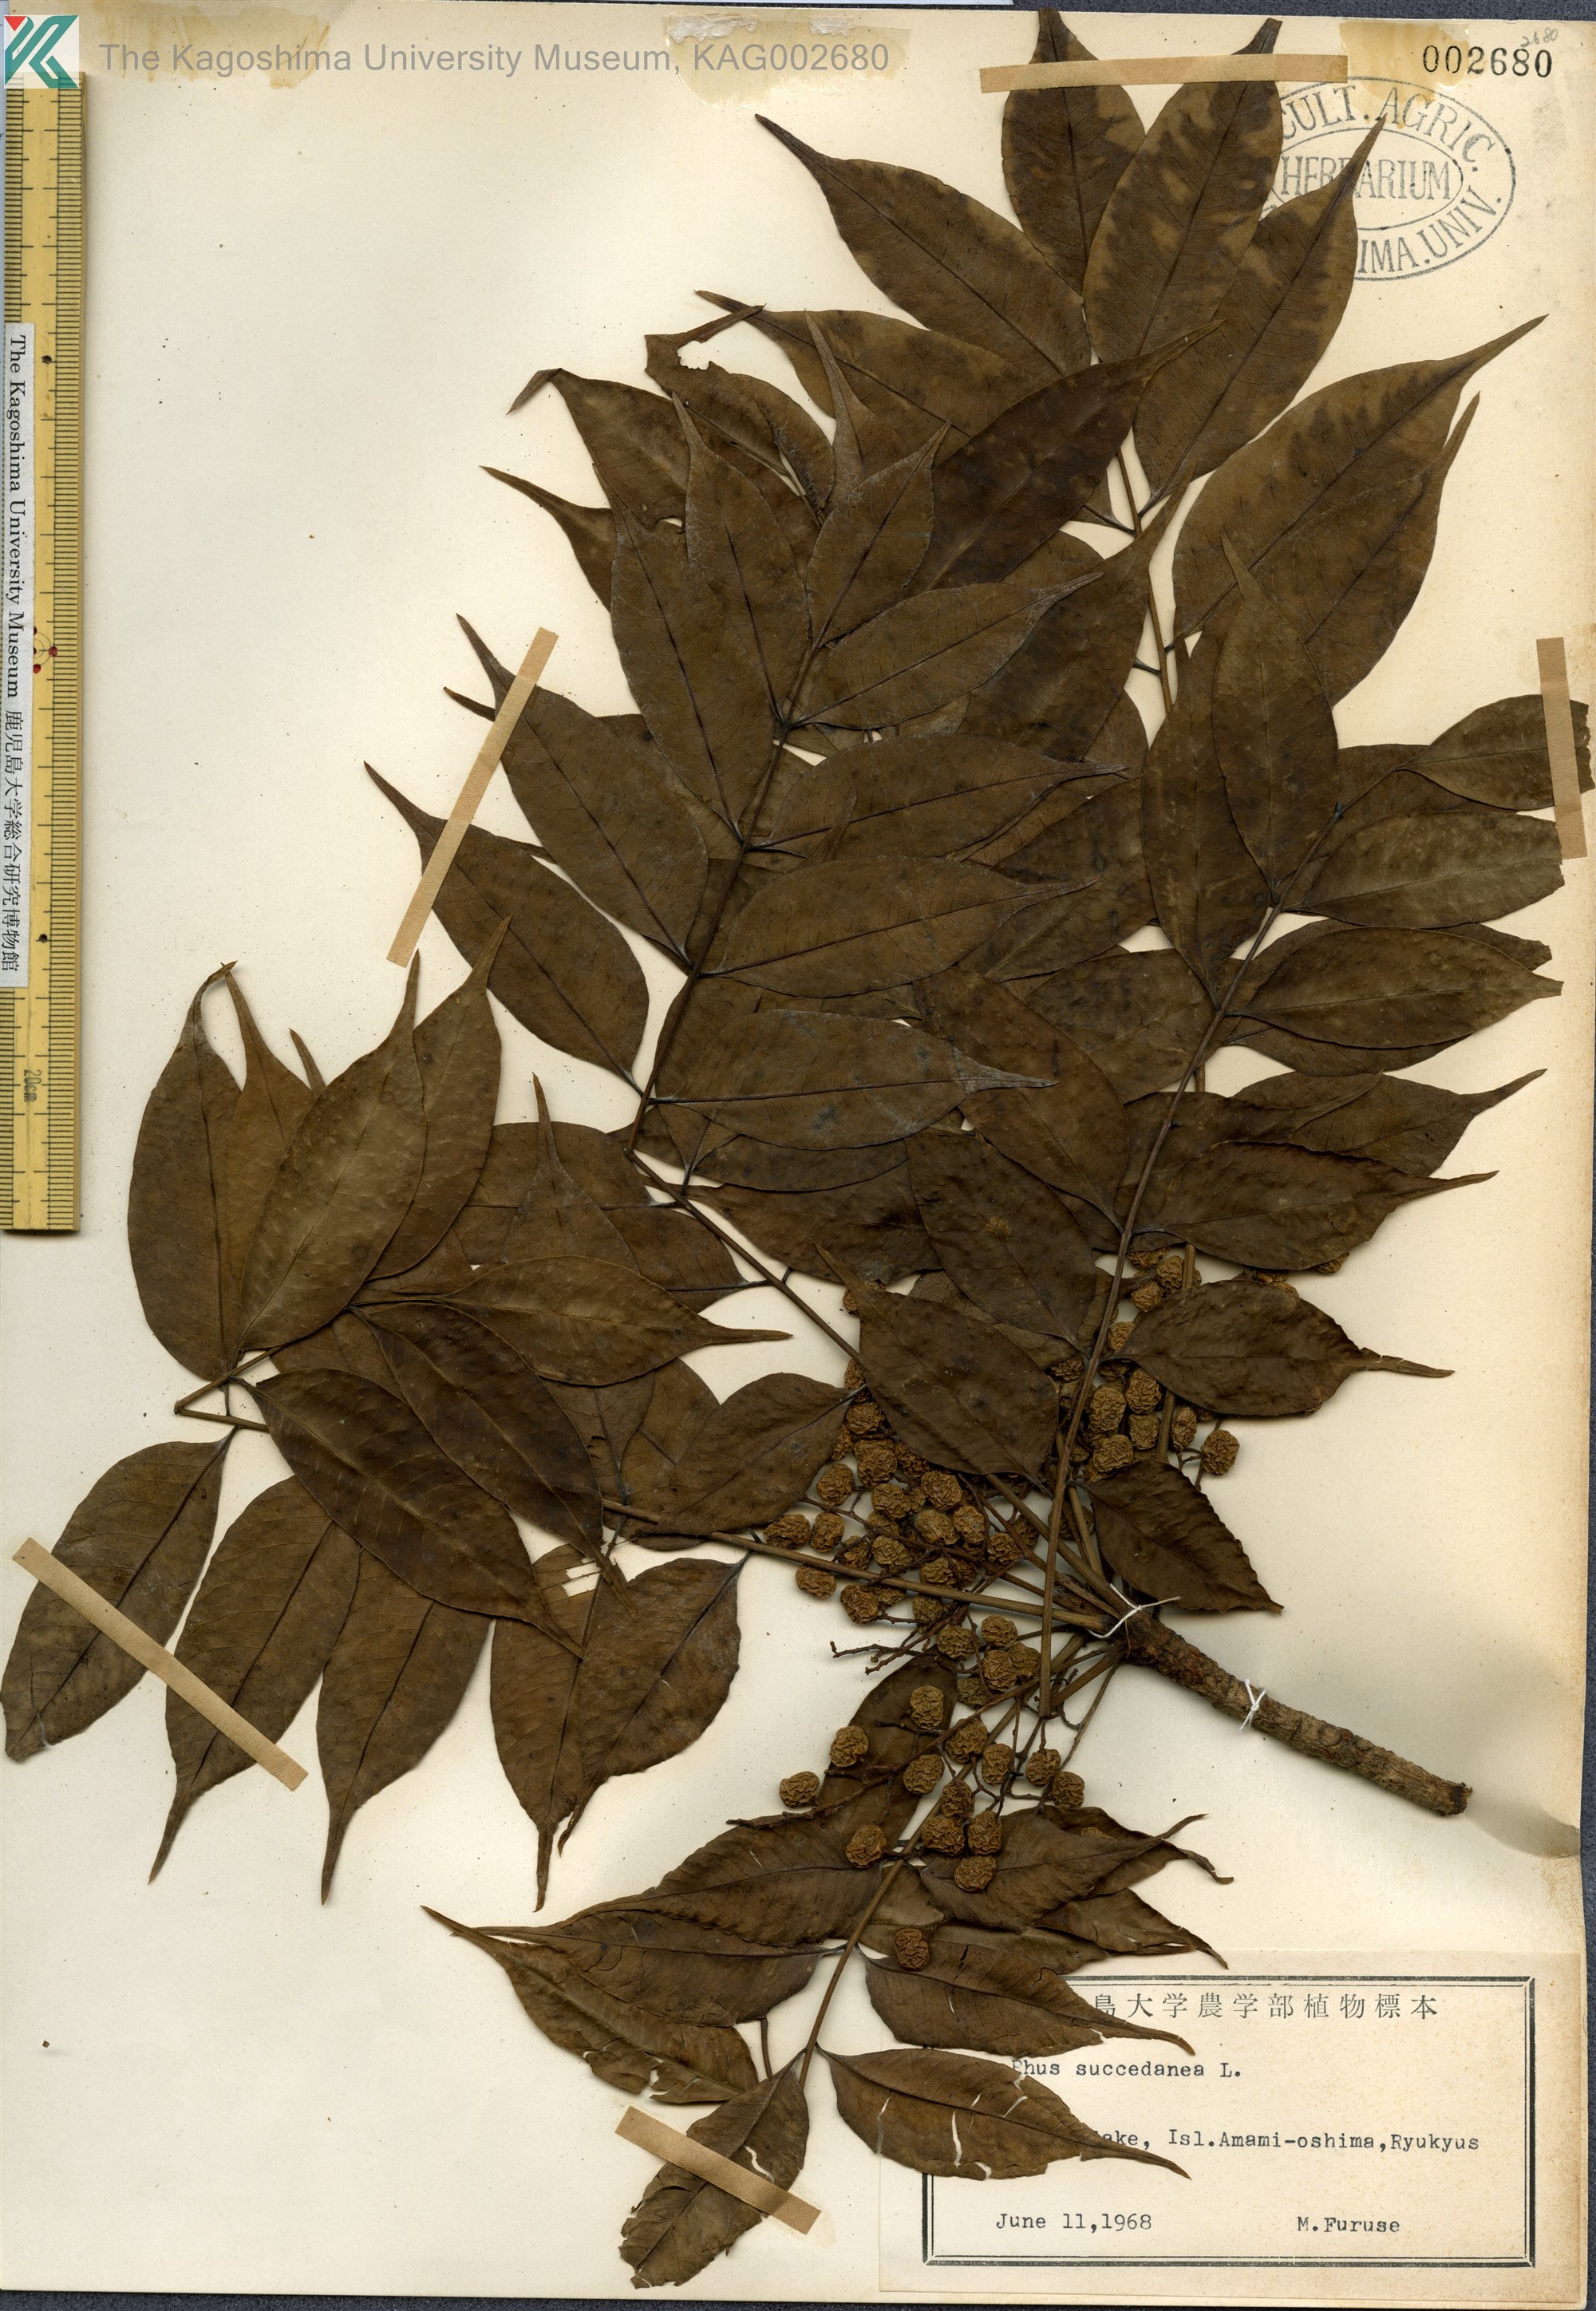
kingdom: Plantae
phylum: Tracheophyta
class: Magnoliopsida
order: Sapindales
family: Anacardiaceae
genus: Toxicodendron
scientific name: Toxicodendron succedaneum
